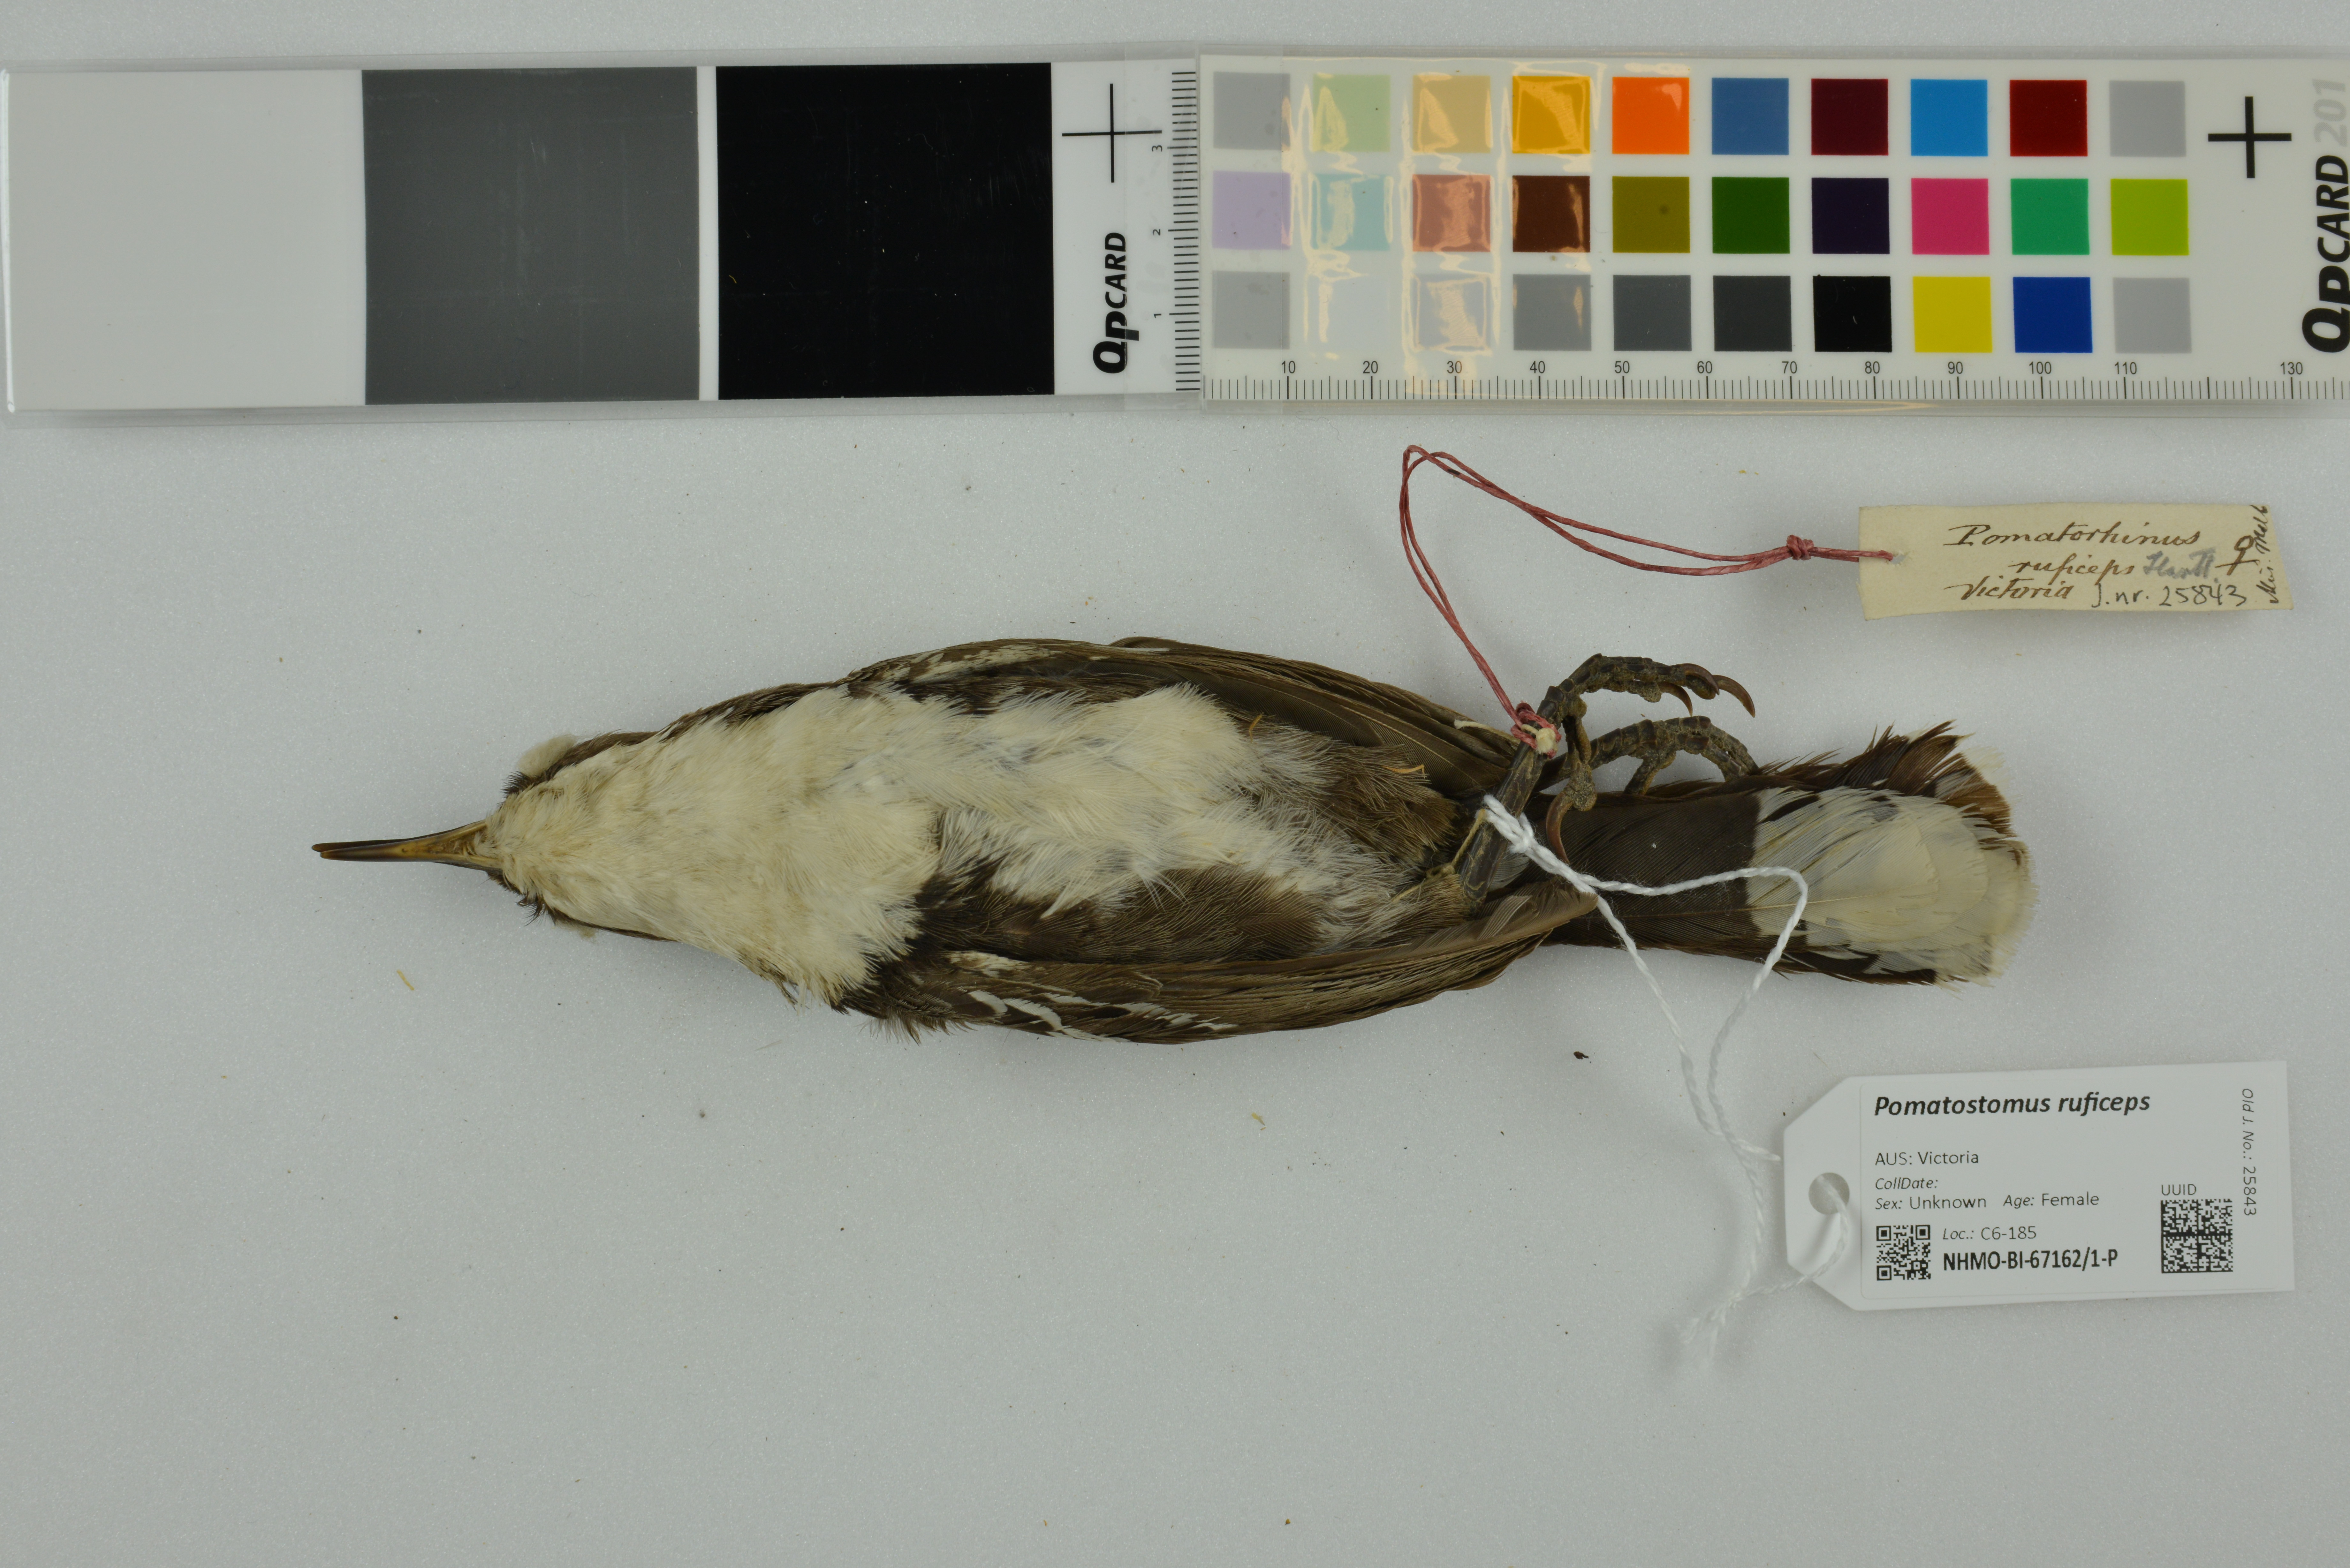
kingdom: Animalia
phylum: Chordata
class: Aves
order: Passeriformes
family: Pomatostomidae
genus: Pomatostomus
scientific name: Pomatostomus ruficeps
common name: Chestnut-crowned babbler
